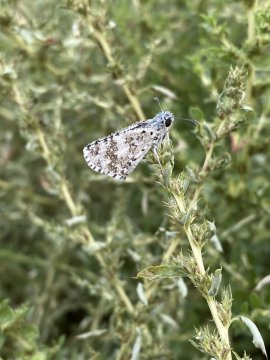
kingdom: Animalia
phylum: Arthropoda
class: Insecta
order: Lepidoptera
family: Hesperiidae
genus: Pyrgus
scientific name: Pyrgus communis
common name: White Checkered-Skipper
